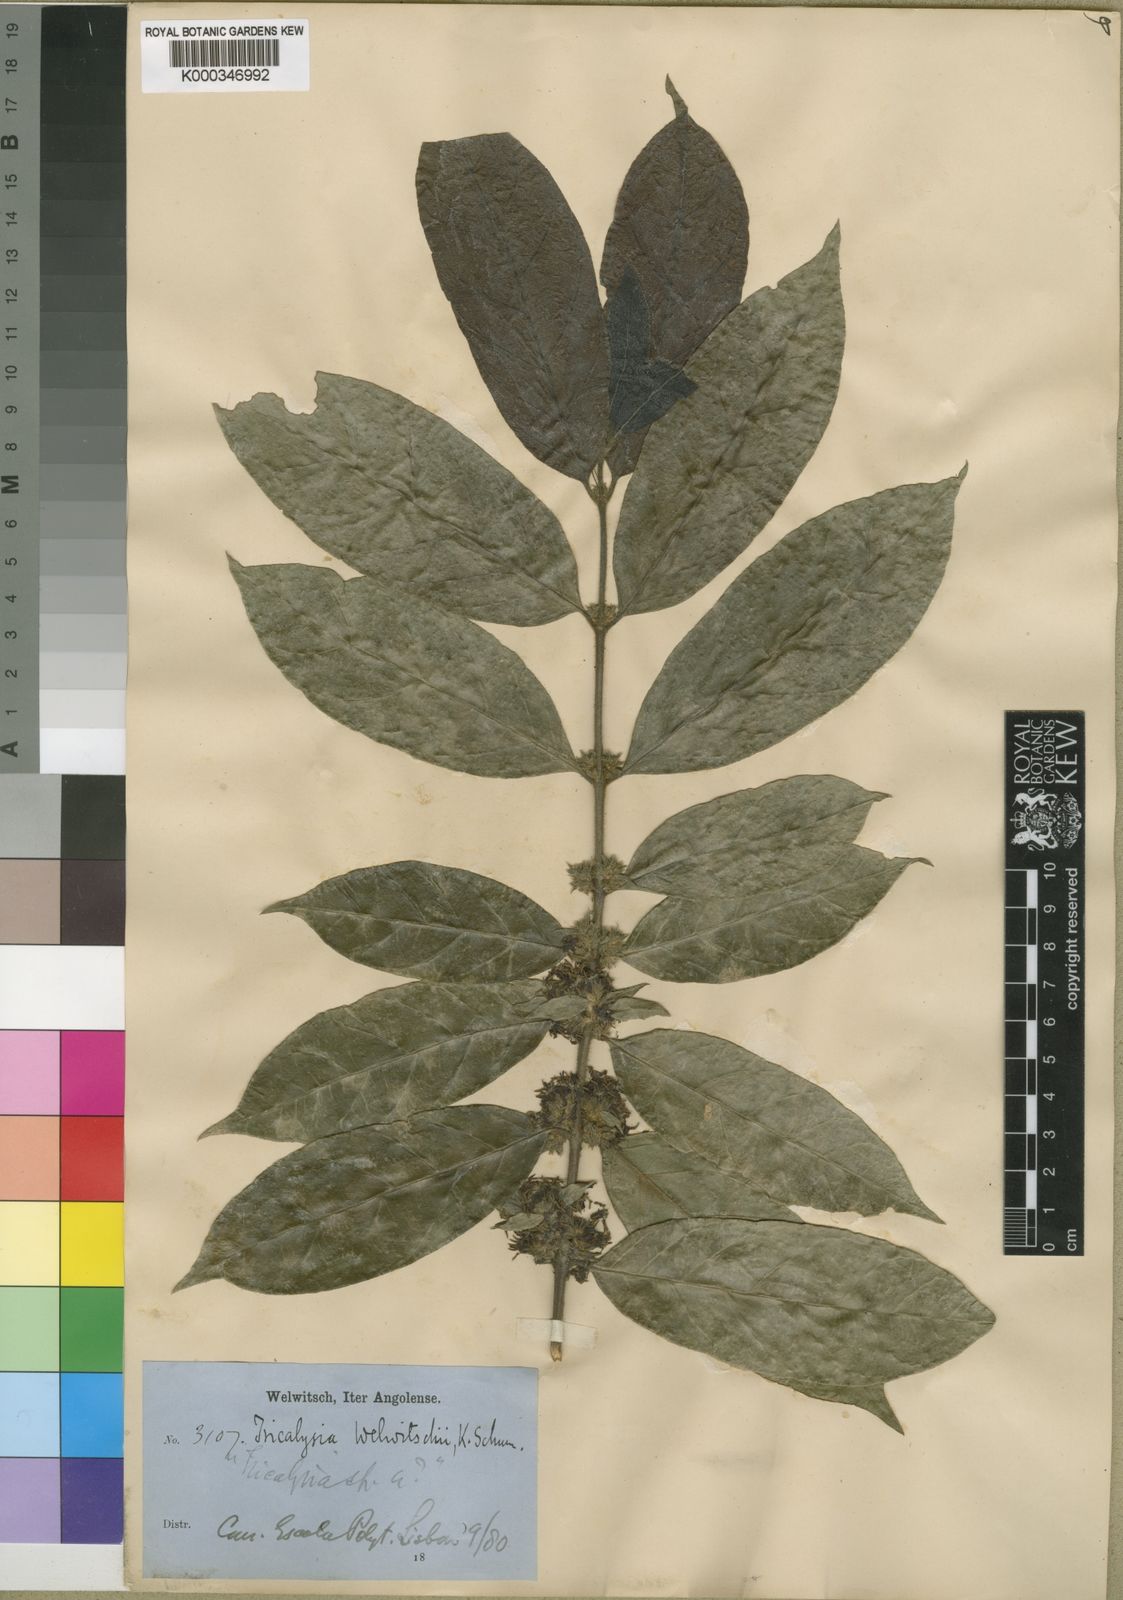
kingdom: Plantae
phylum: Tracheophyta
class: Magnoliopsida
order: Gentianales
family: Rubiaceae
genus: Empogona
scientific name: Empogona welwitschii
